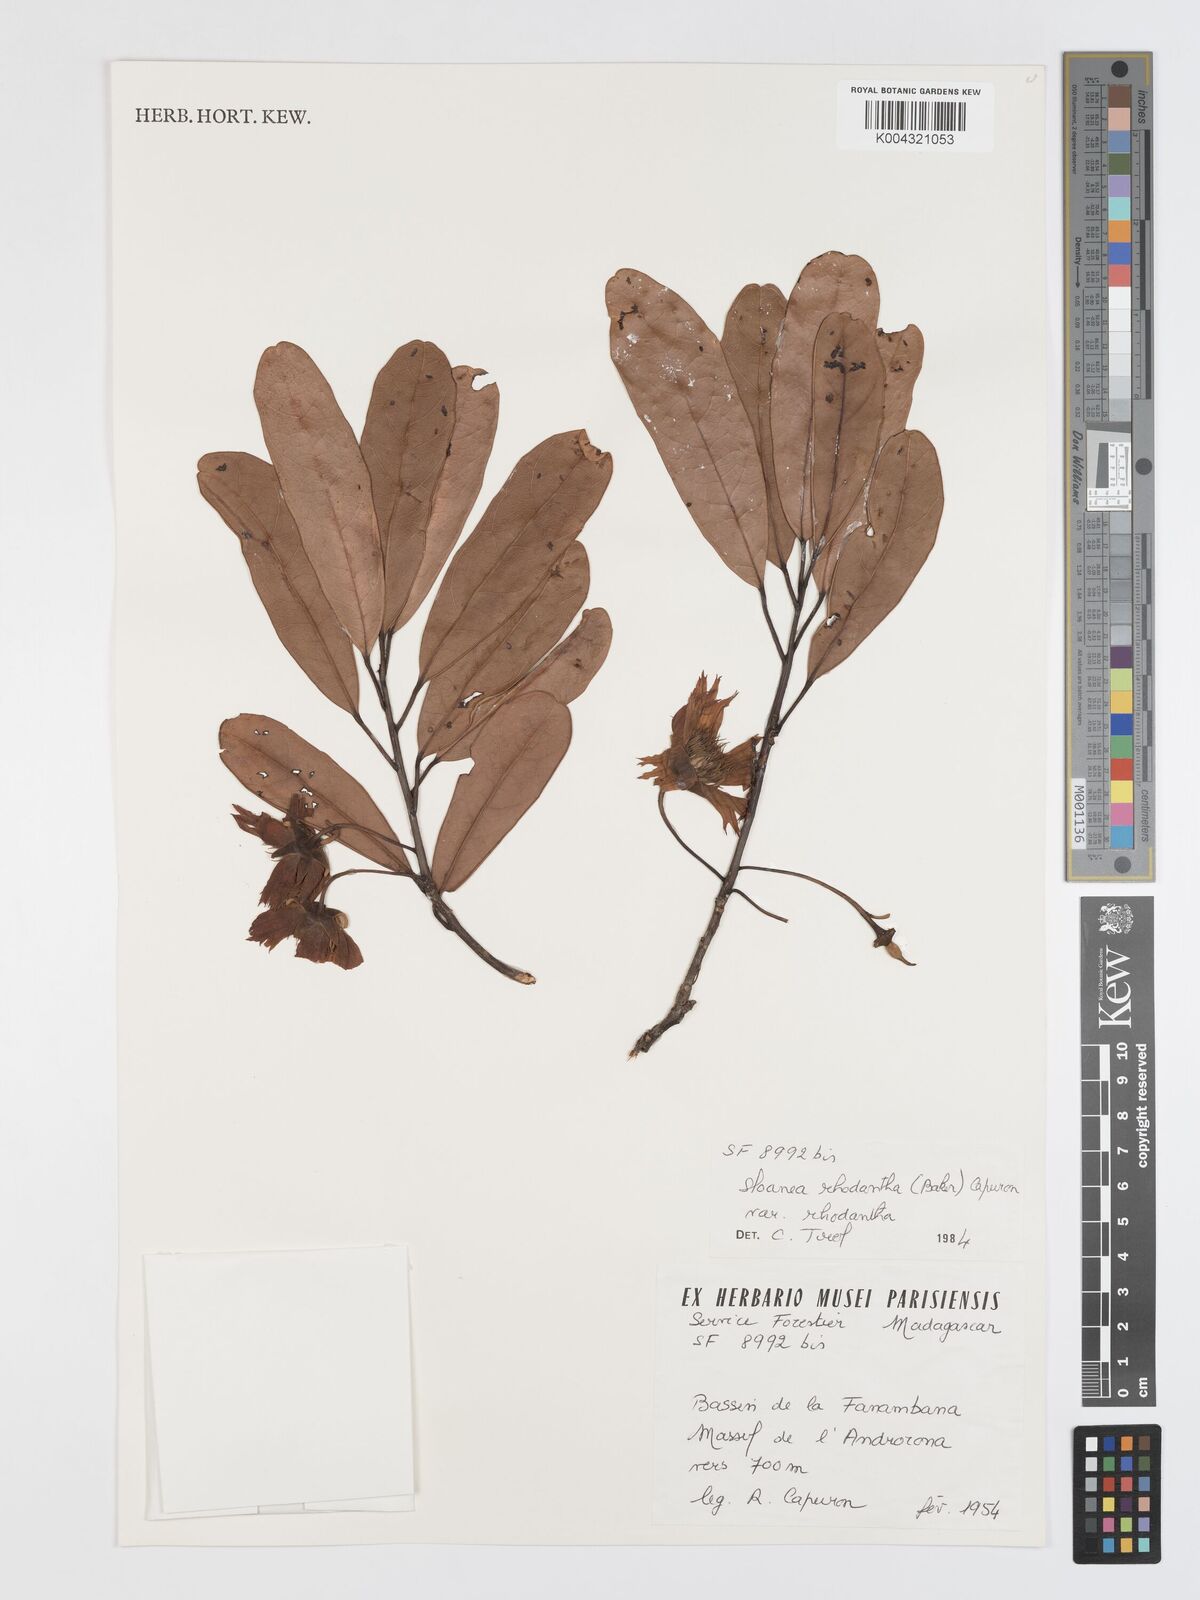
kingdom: Plantae
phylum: Tracheophyta
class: Magnoliopsida
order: Oxalidales
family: Elaeocarpaceae
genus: Sloanea
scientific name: Sloanea rhodantha
